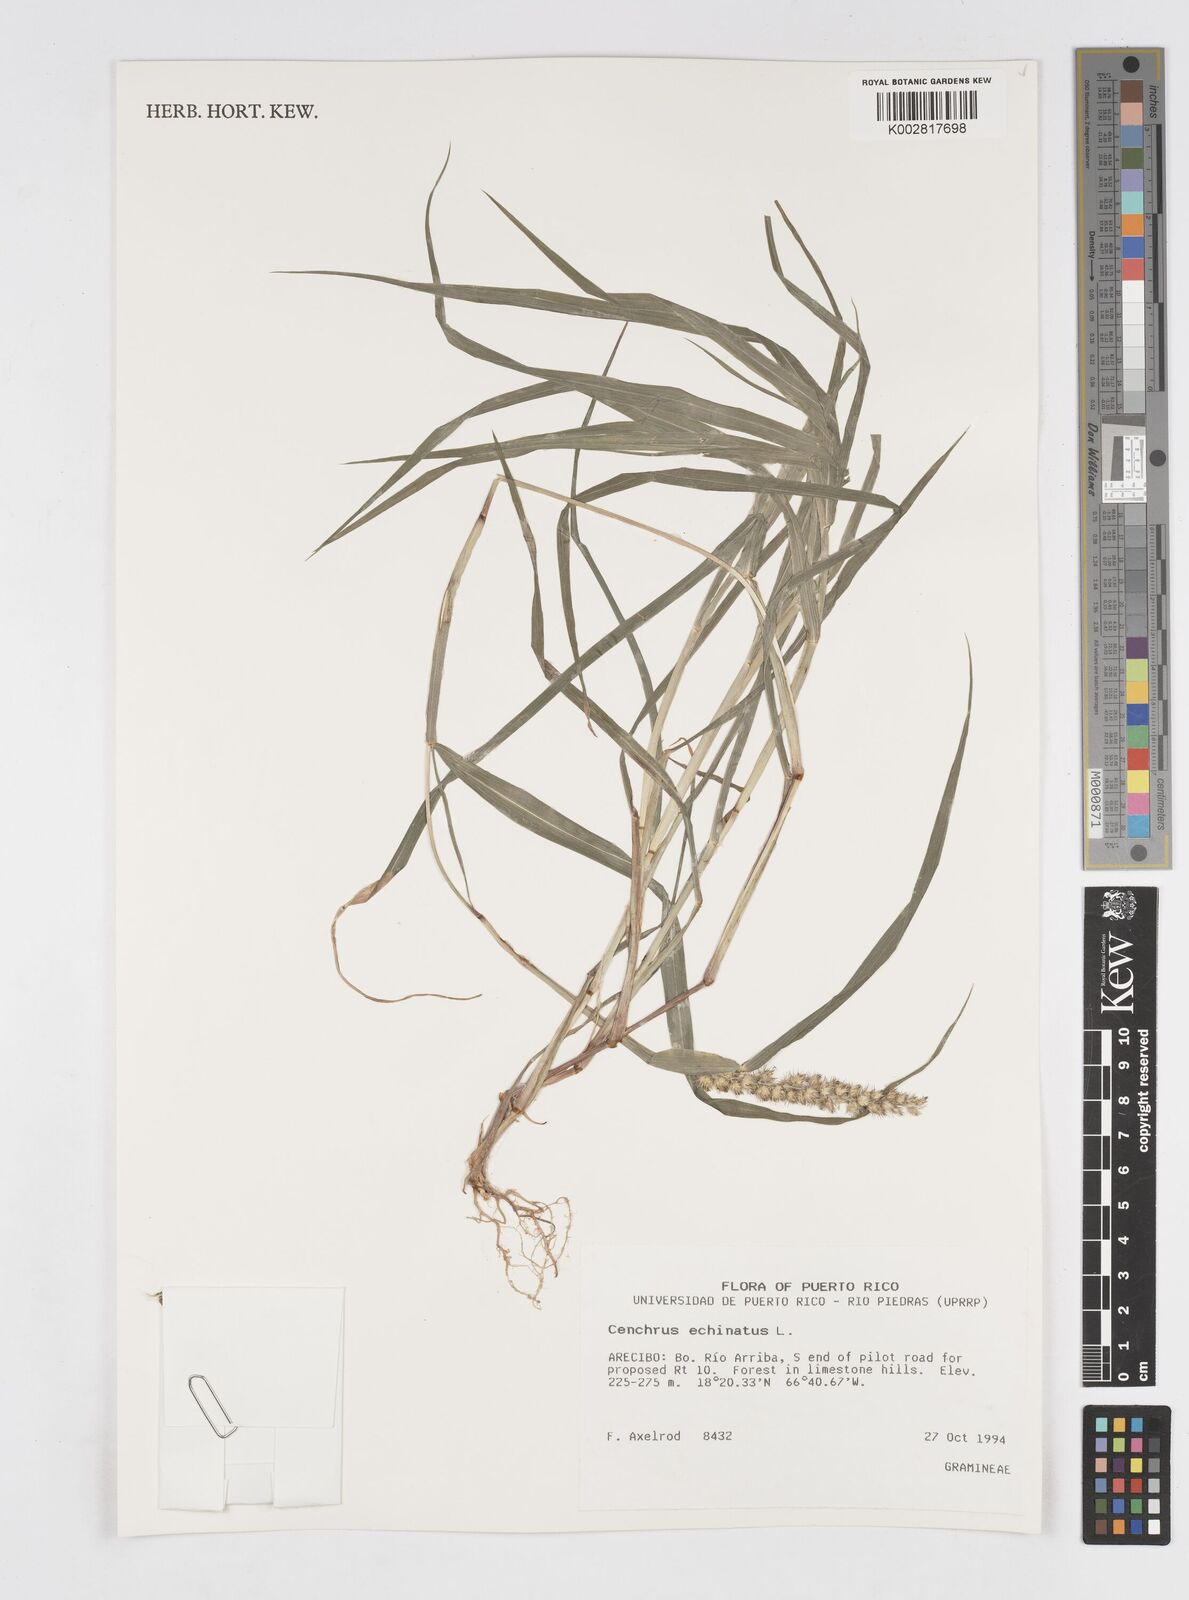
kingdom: Plantae
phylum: Tracheophyta
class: Liliopsida
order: Poales
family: Poaceae
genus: Cenchrus
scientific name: Cenchrus
